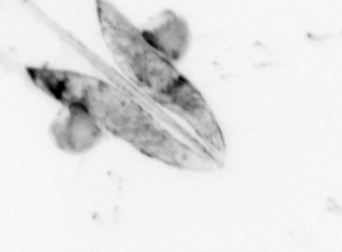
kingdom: Animalia
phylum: Chaetognatha
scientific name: Chaetognatha
